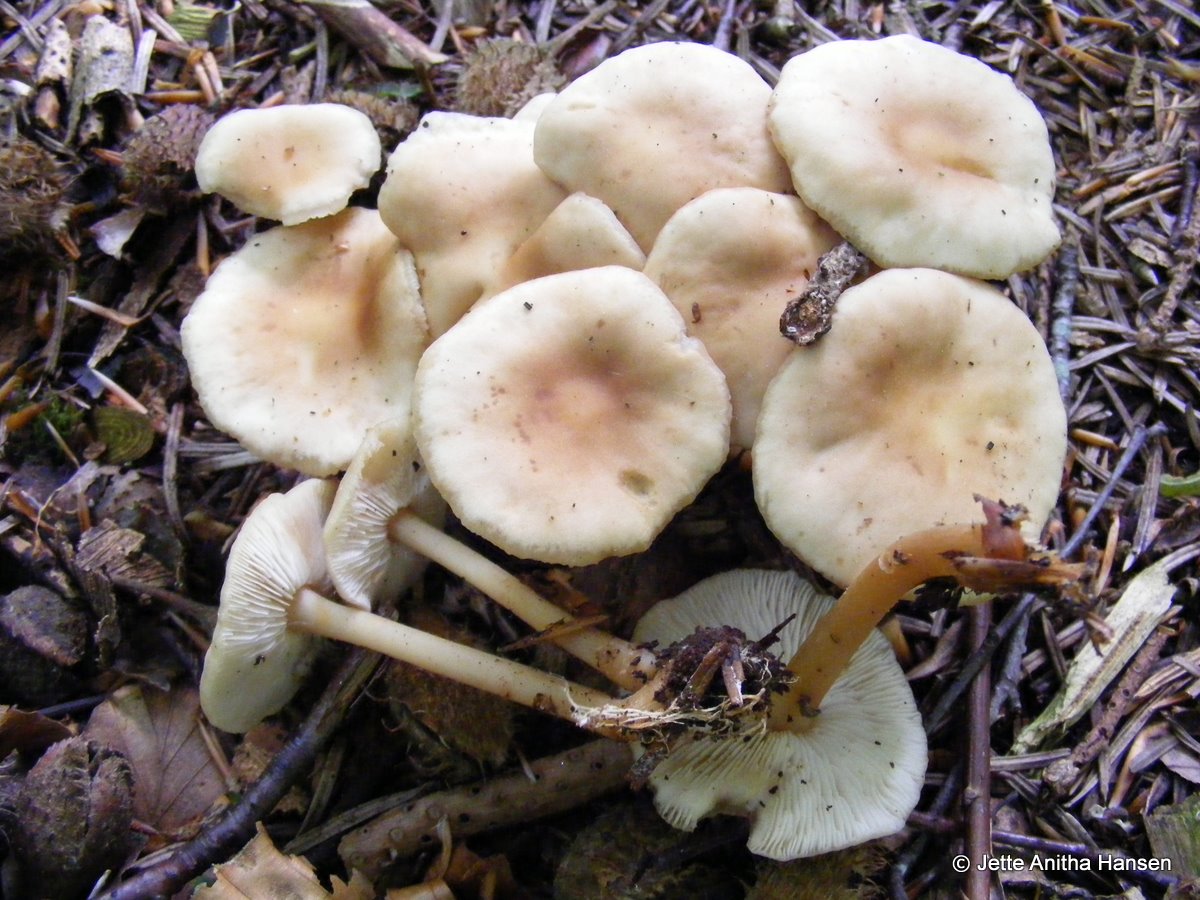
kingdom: Fungi
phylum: Basidiomycota
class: Agaricomycetes
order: Agaricales
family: Omphalotaceae
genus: Gymnopus
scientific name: Gymnopus aquosus
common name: bleg fladhat
